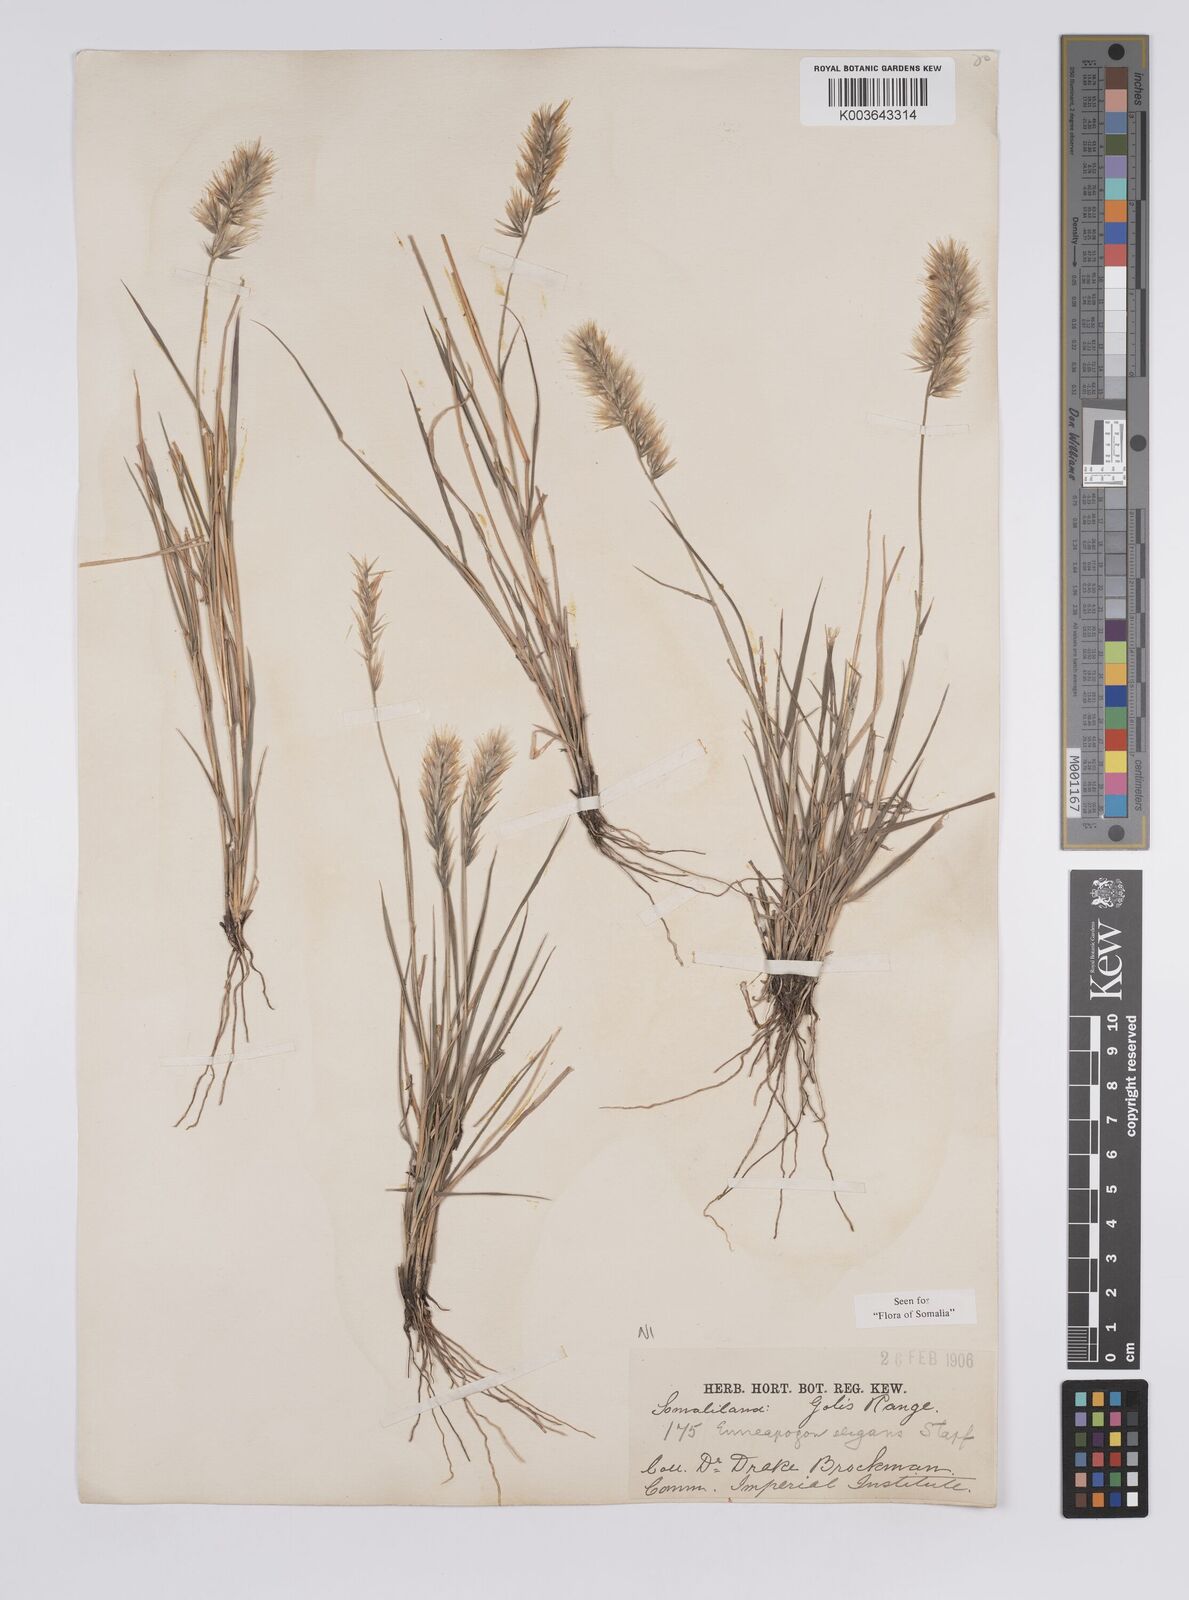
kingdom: Plantae
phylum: Tracheophyta
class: Liliopsida
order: Poales
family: Poaceae
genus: Enneapogon
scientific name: Enneapogon persicus
